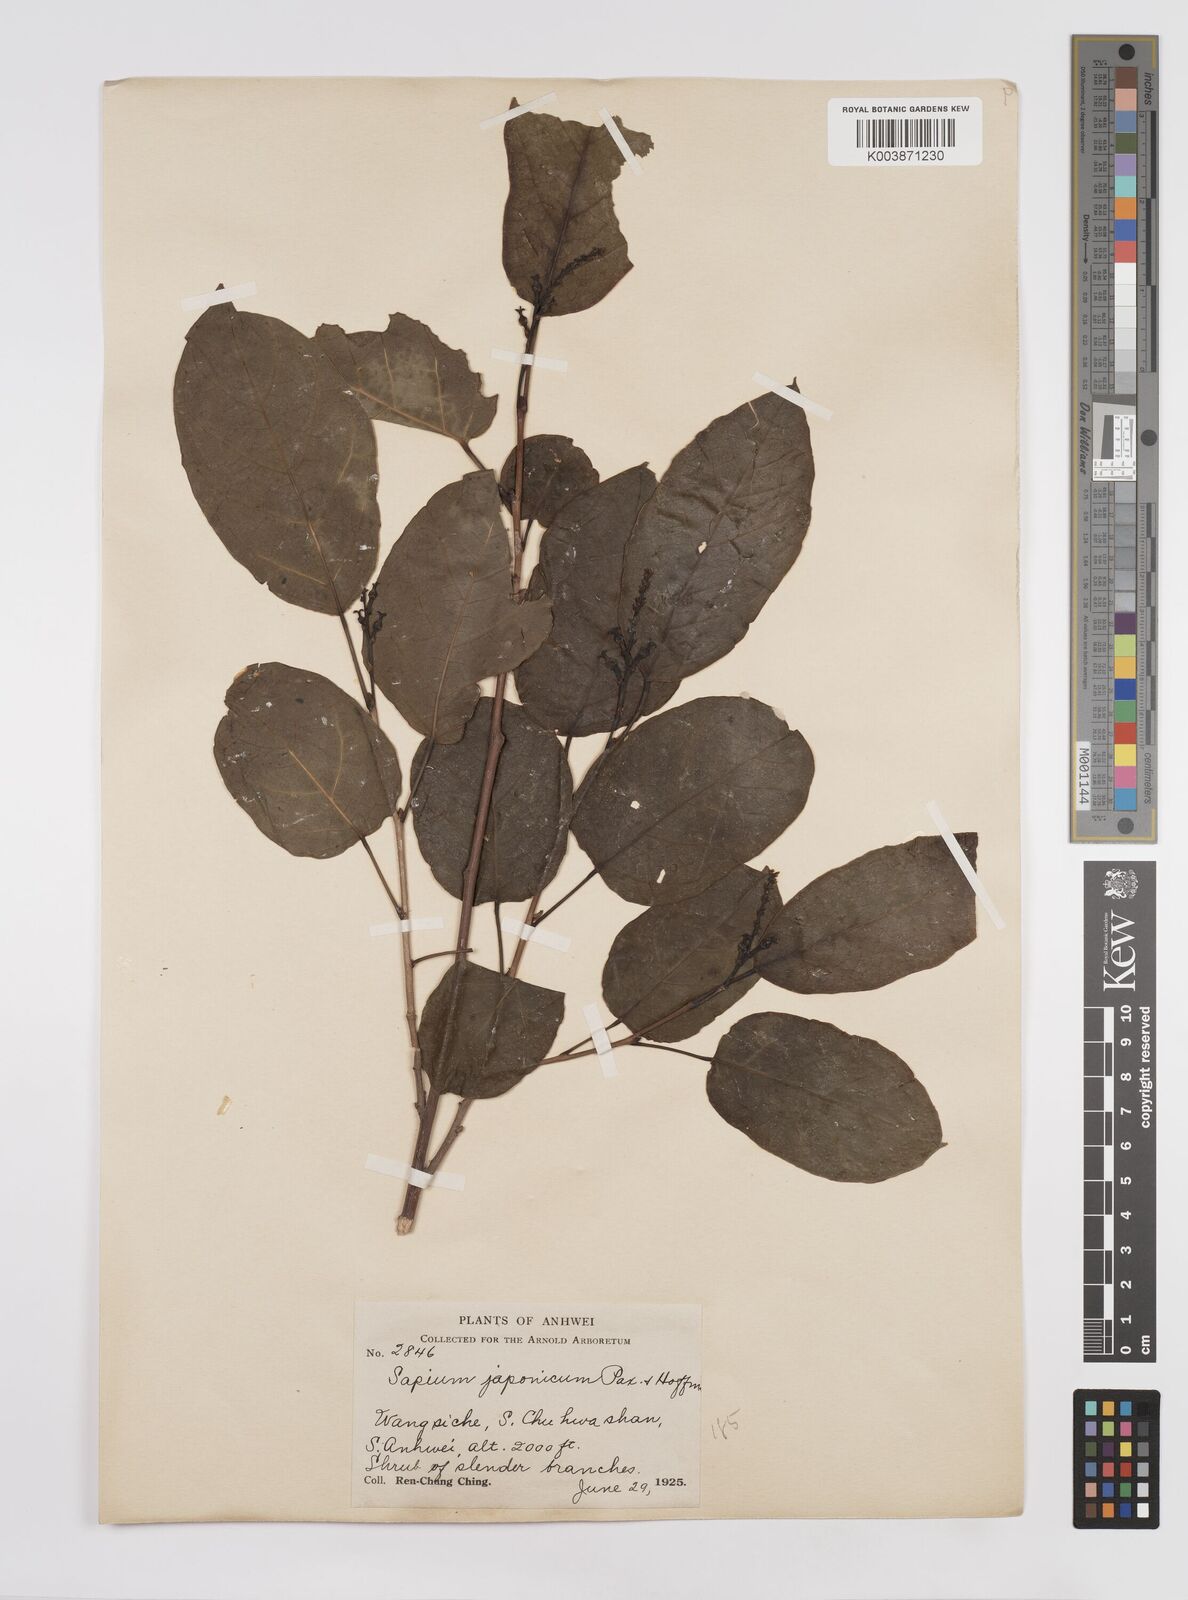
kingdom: Plantae
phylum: Tracheophyta
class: Magnoliopsida
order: Malpighiales
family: Euphorbiaceae
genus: Neoshirakia
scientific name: Neoshirakia japonica
